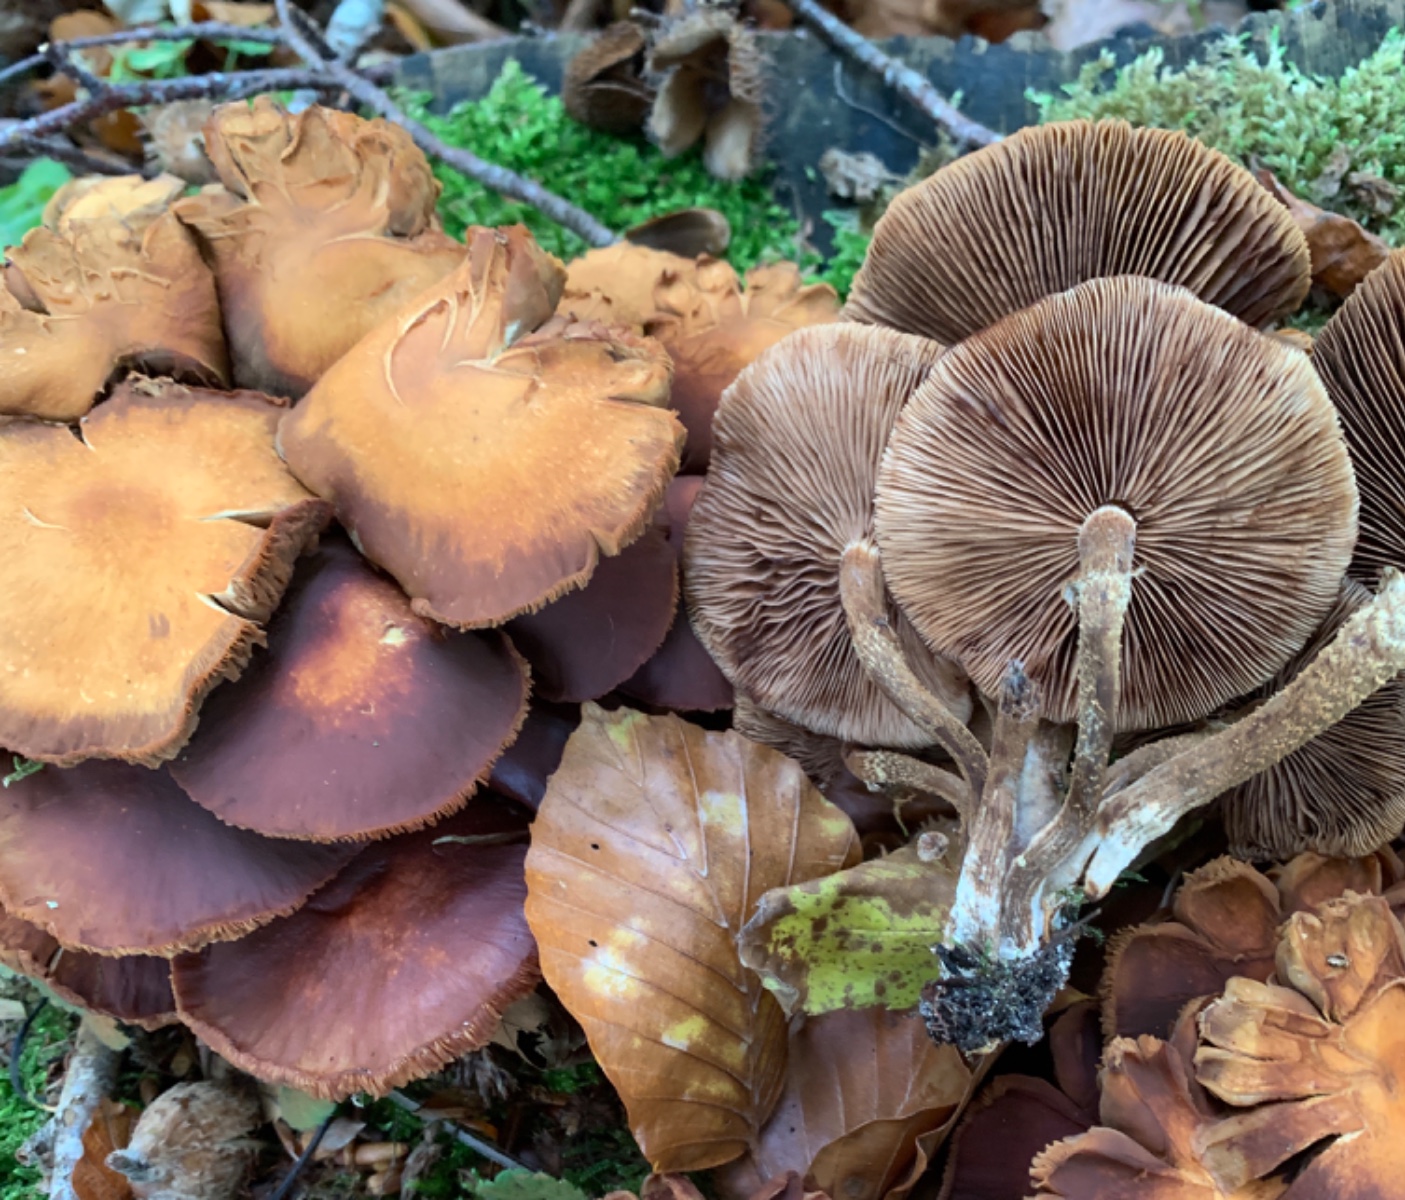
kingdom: Fungi
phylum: Basidiomycota
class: Agaricomycetes
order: Agaricales
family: Strophariaceae
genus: Kuehneromyces
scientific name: Kuehneromyces mutabilis
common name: foranderlig skælhat
